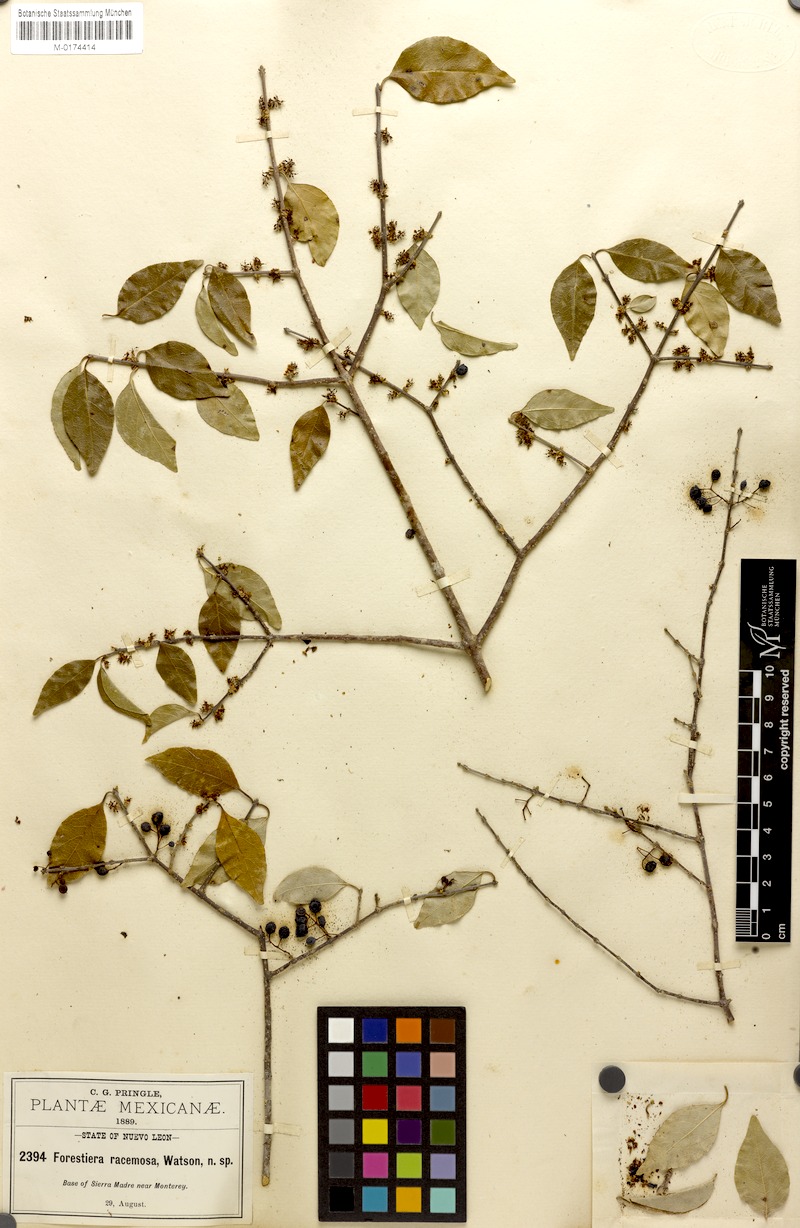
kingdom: Plantae
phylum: Tracheophyta
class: Magnoliopsida
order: Lamiales
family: Oleaceae
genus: Forestiera
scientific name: Forestiera racemosa
